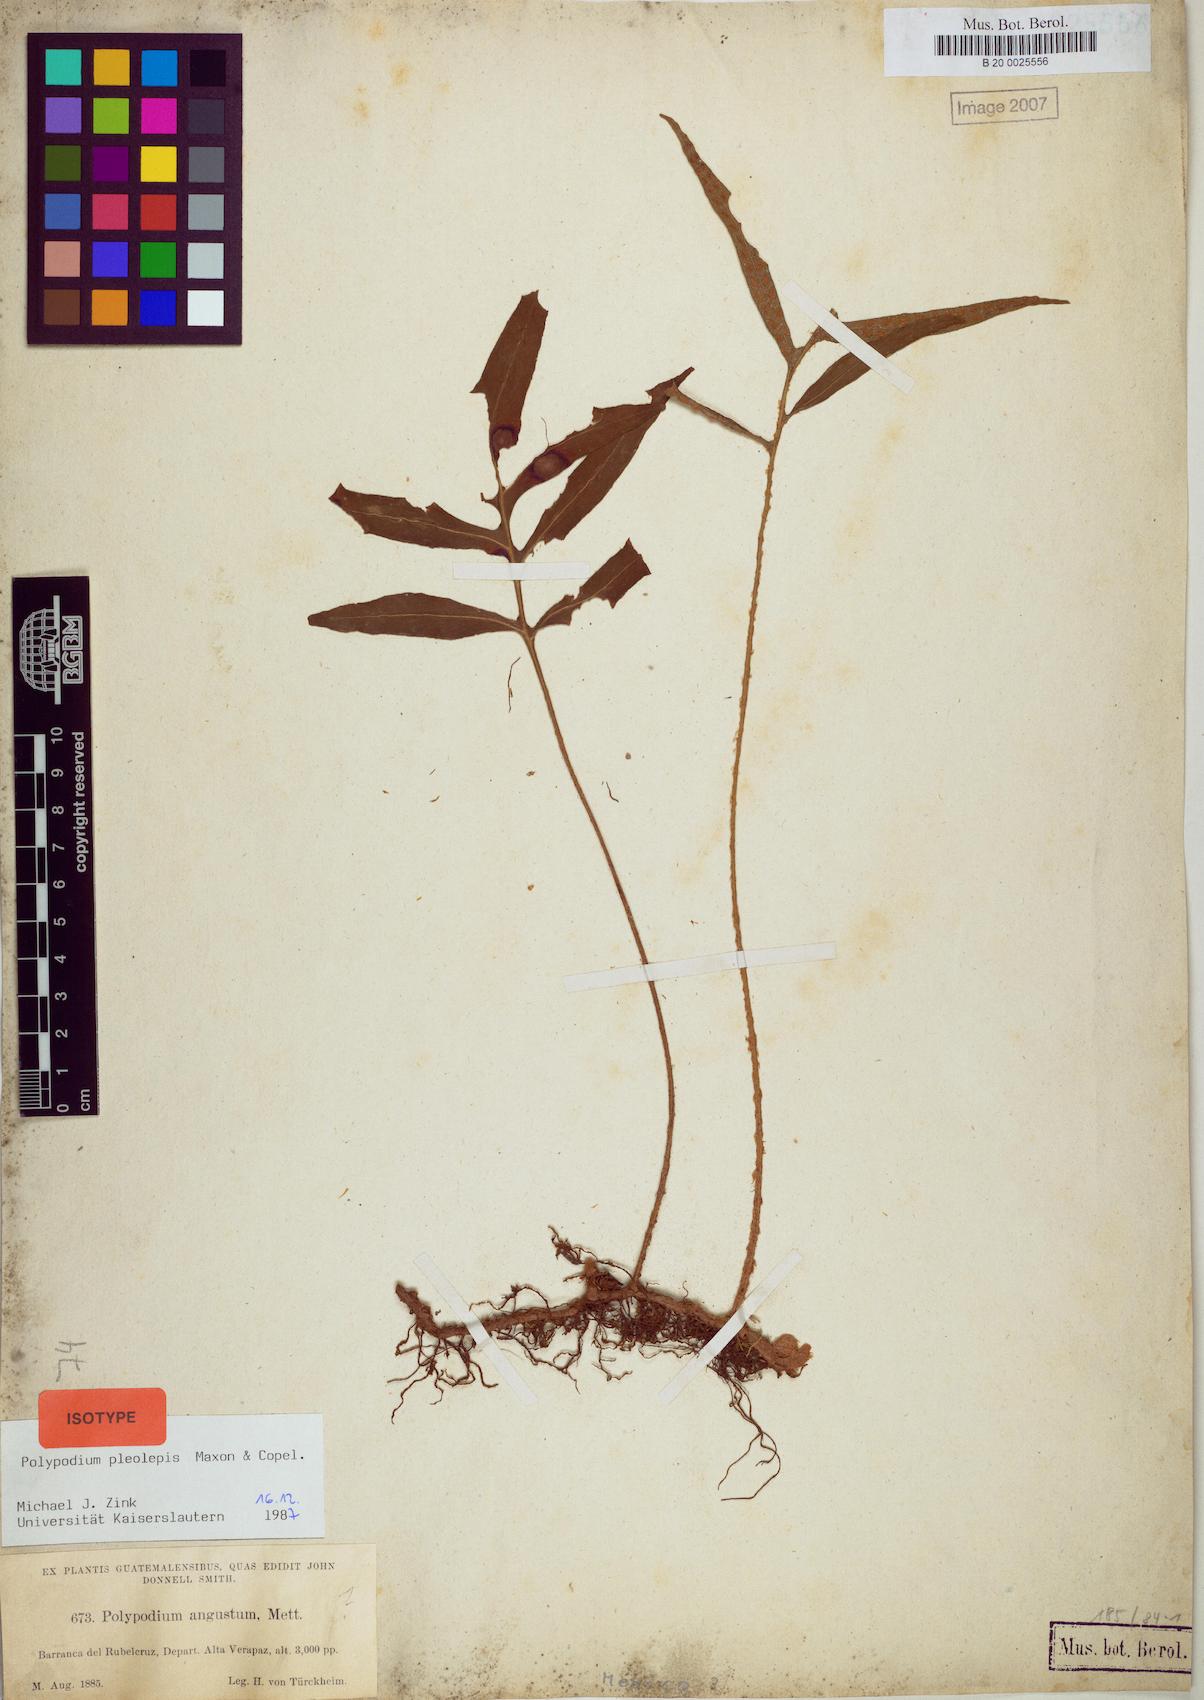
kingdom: Plantae
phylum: Tracheophyta
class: Polypodiopsida
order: Polypodiales
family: Polypodiaceae
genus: Pleopeltis
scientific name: Pleopeltis bradeorum
